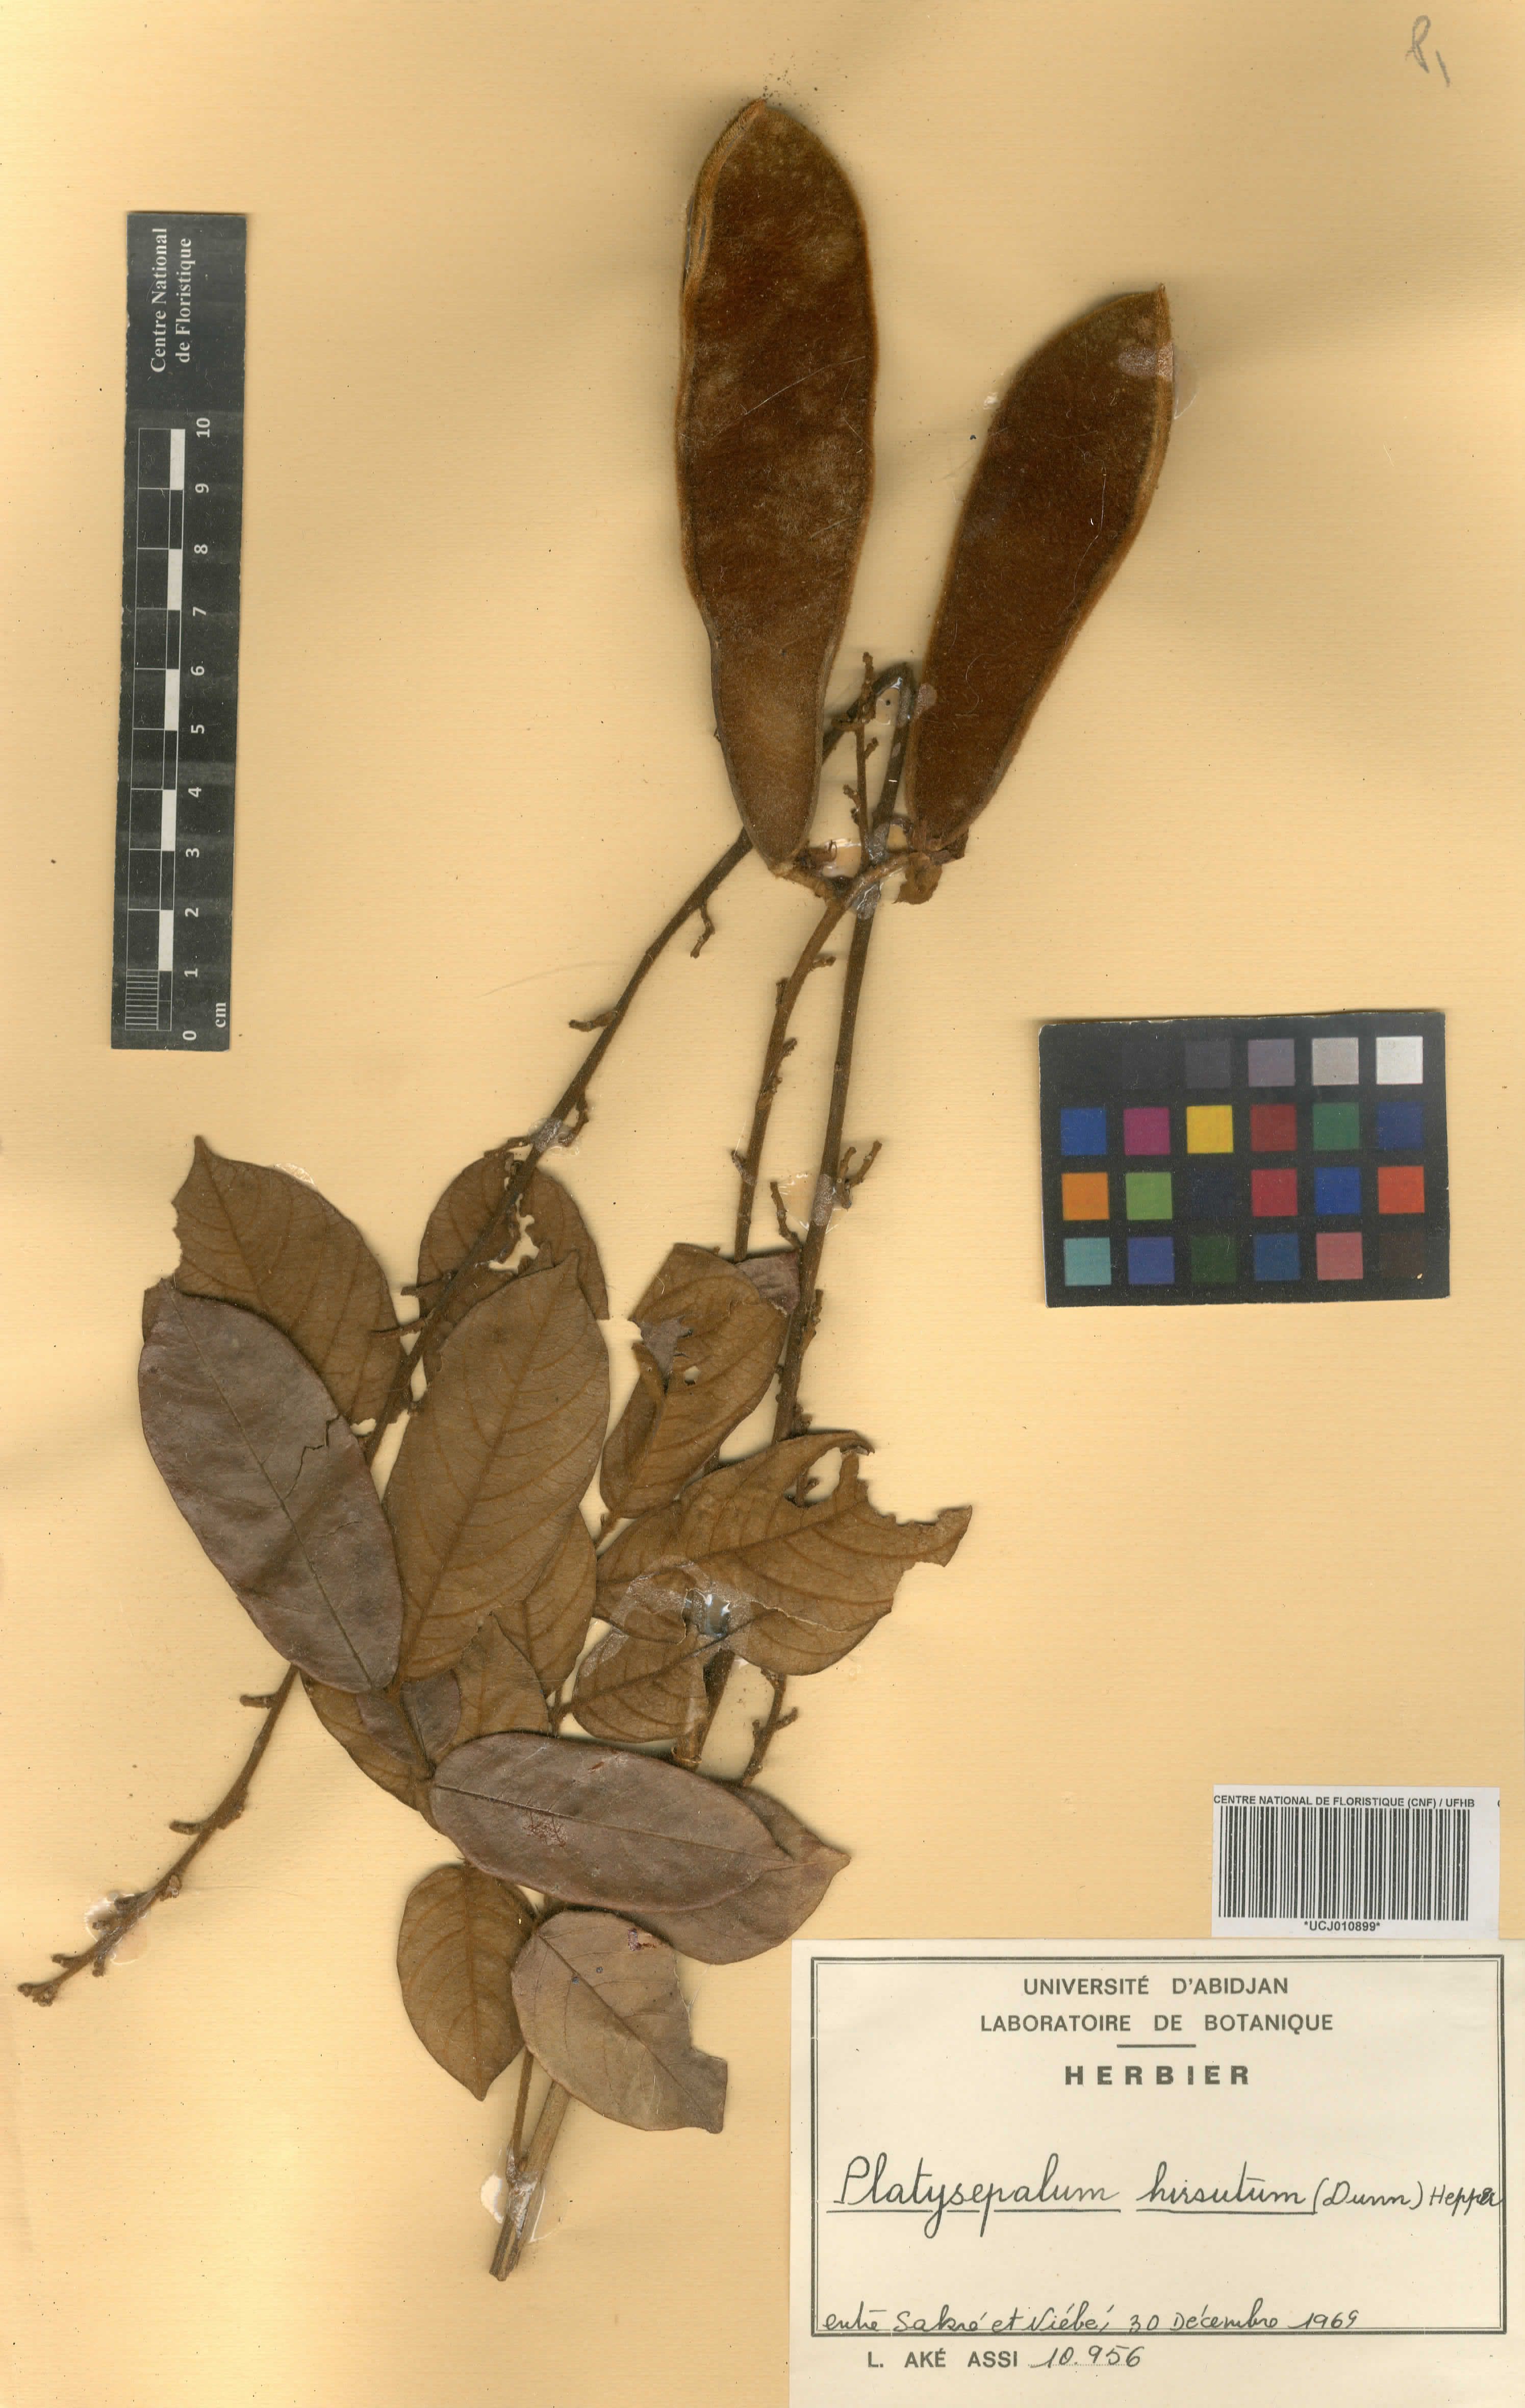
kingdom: Plantae
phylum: Tracheophyta
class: Magnoliopsida
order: Fabales
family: Fabaceae
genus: Platysepalum
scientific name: Platysepalum hirsutum
